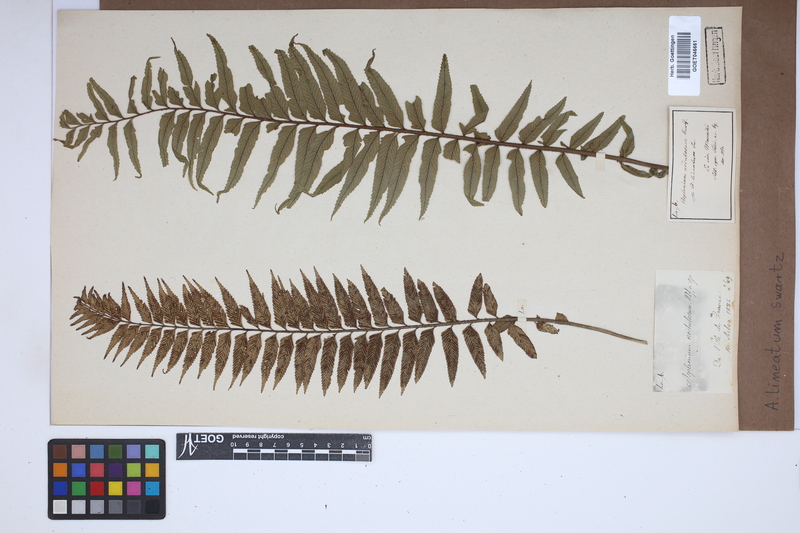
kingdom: Plantae
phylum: Tracheophyta
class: Polypodiopsida
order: Polypodiales
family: Aspleniaceae
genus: Asplenium
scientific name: Asplenium daucifolium
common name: Mauritius spleenwort
